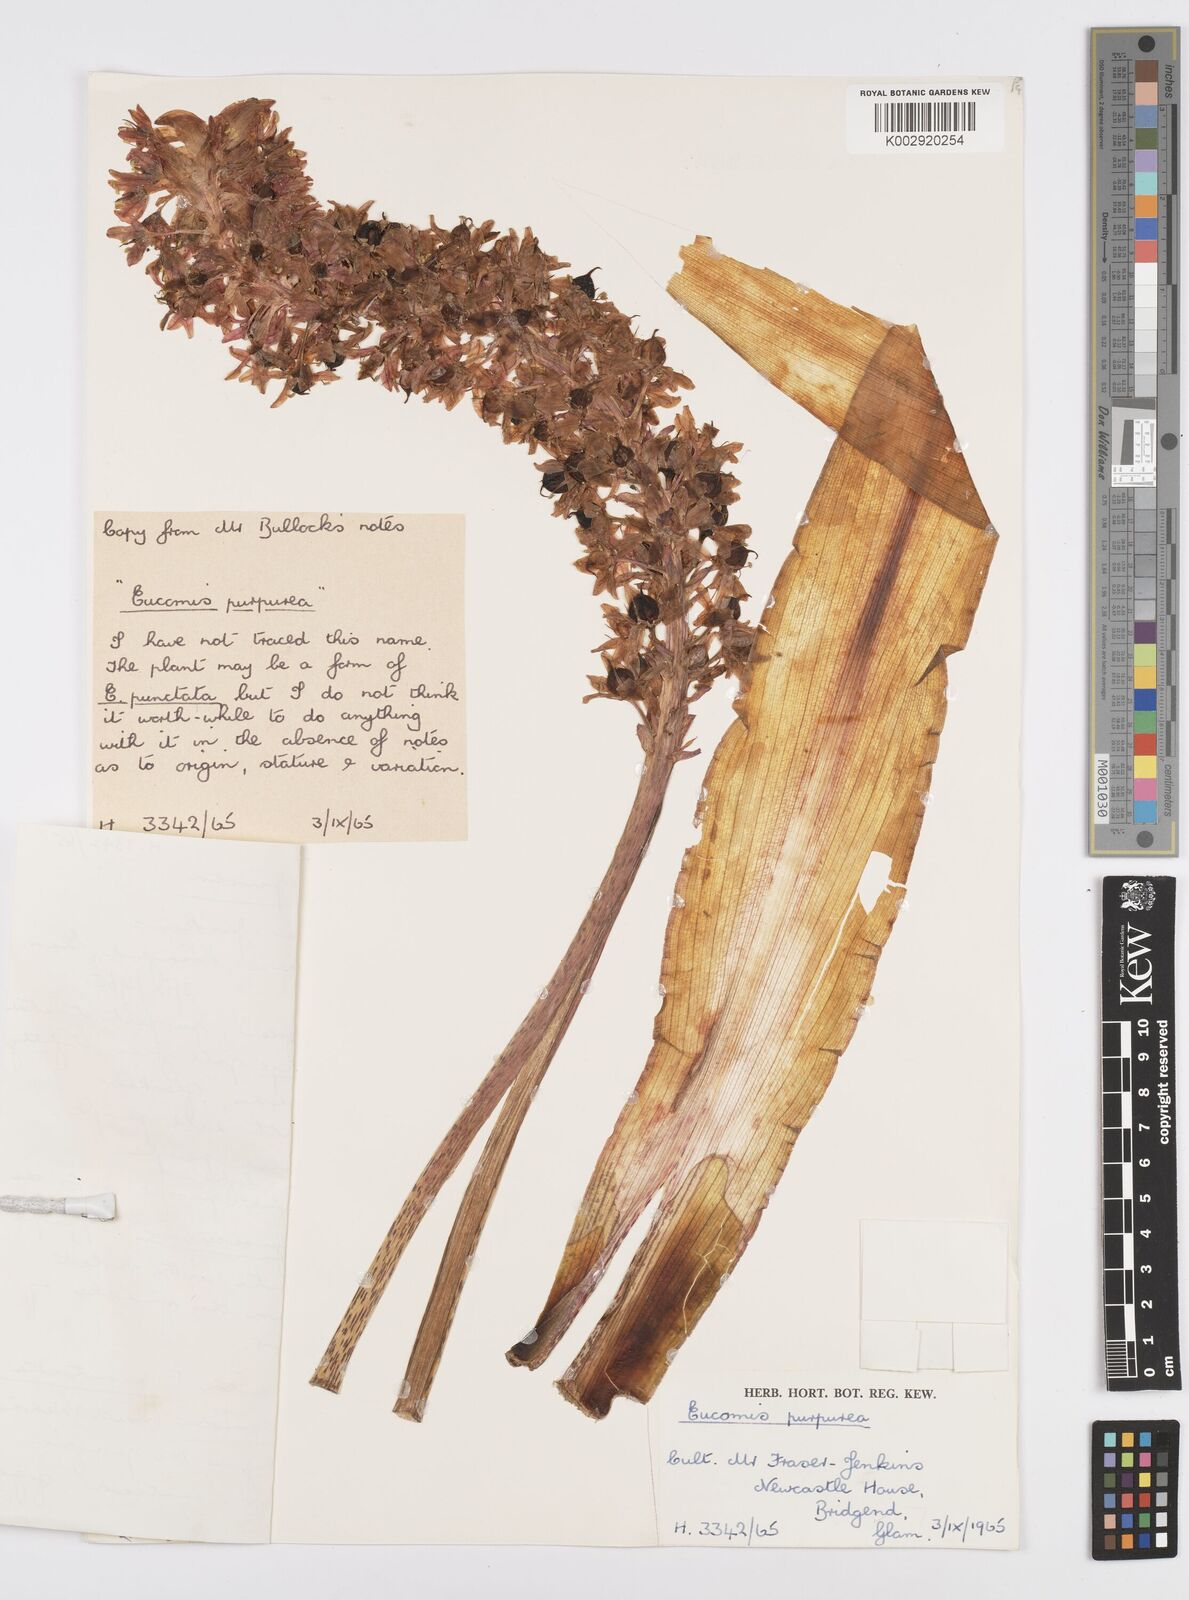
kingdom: Plantae
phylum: Tracheophyta
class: Liliopsida
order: Asparagales
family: Asparagaceae
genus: Eucomis
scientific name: Eucomis comosa
